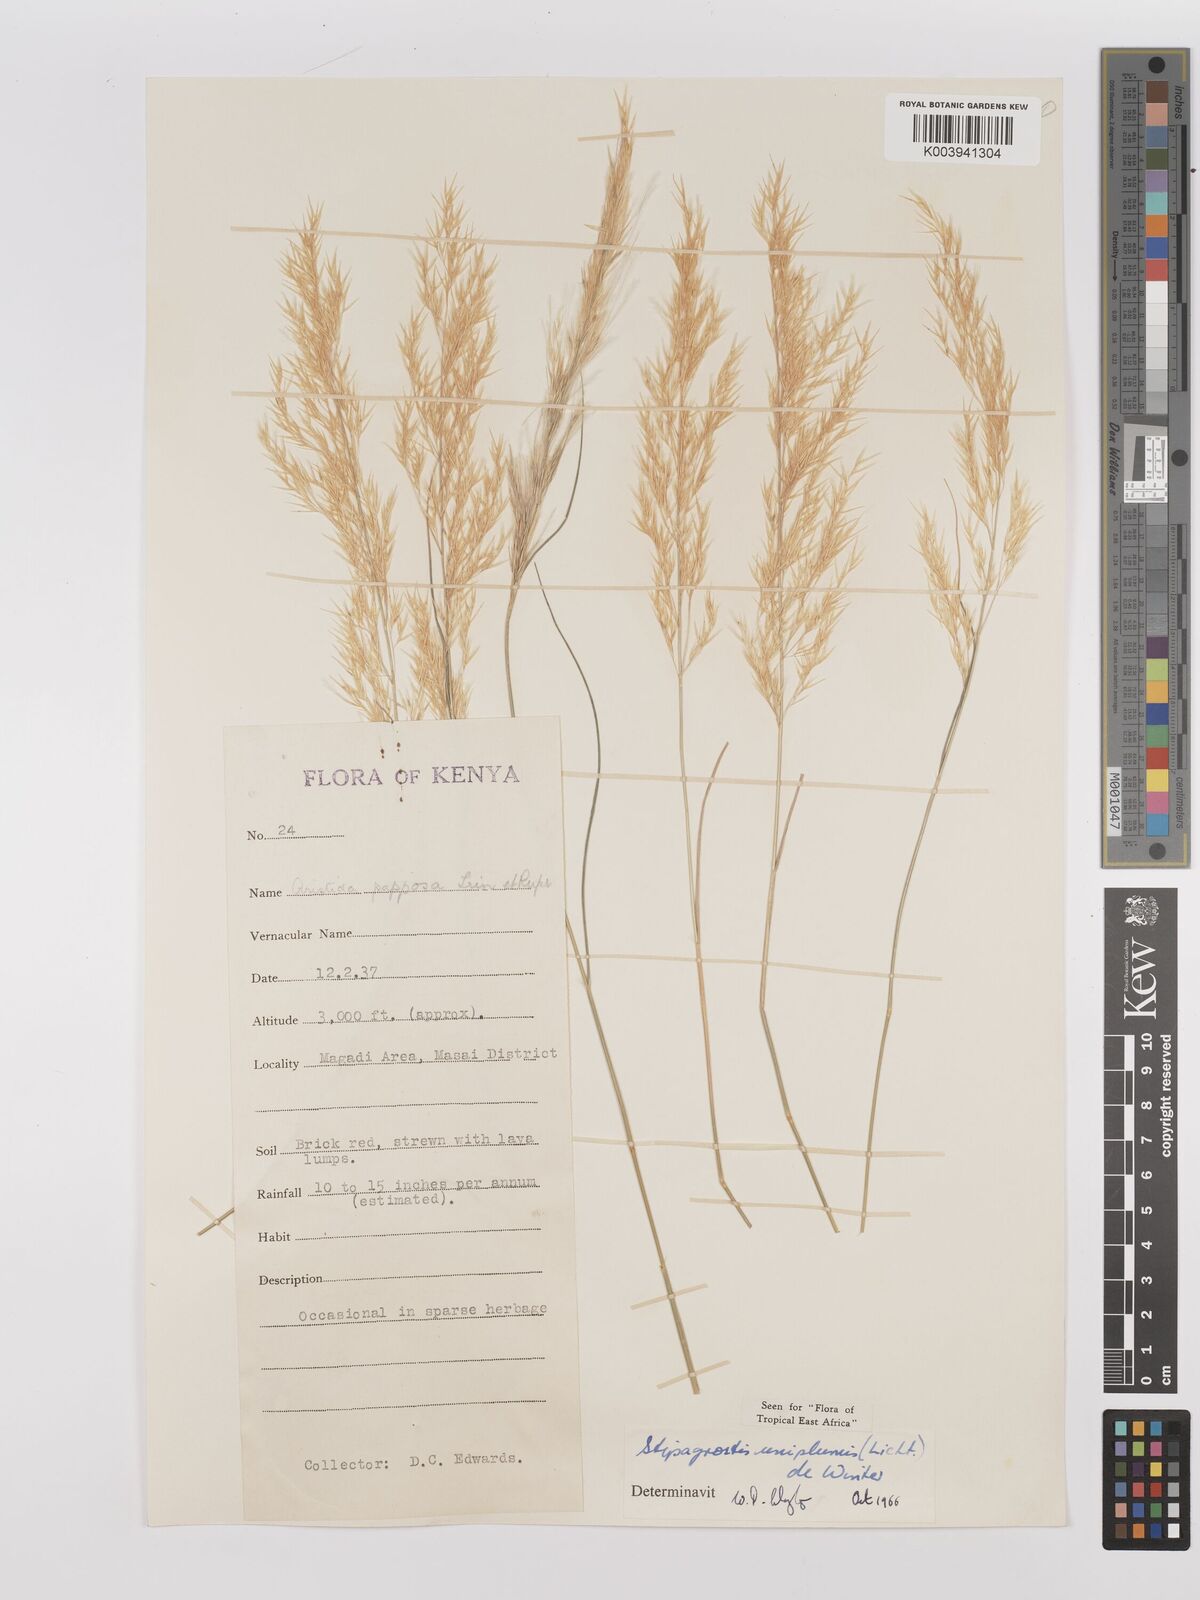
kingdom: Plantae
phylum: Tracheophyta
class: Liliopsida
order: Poales
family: Poaceae
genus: Stipagrostis
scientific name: Stipagrostis uniplumis
